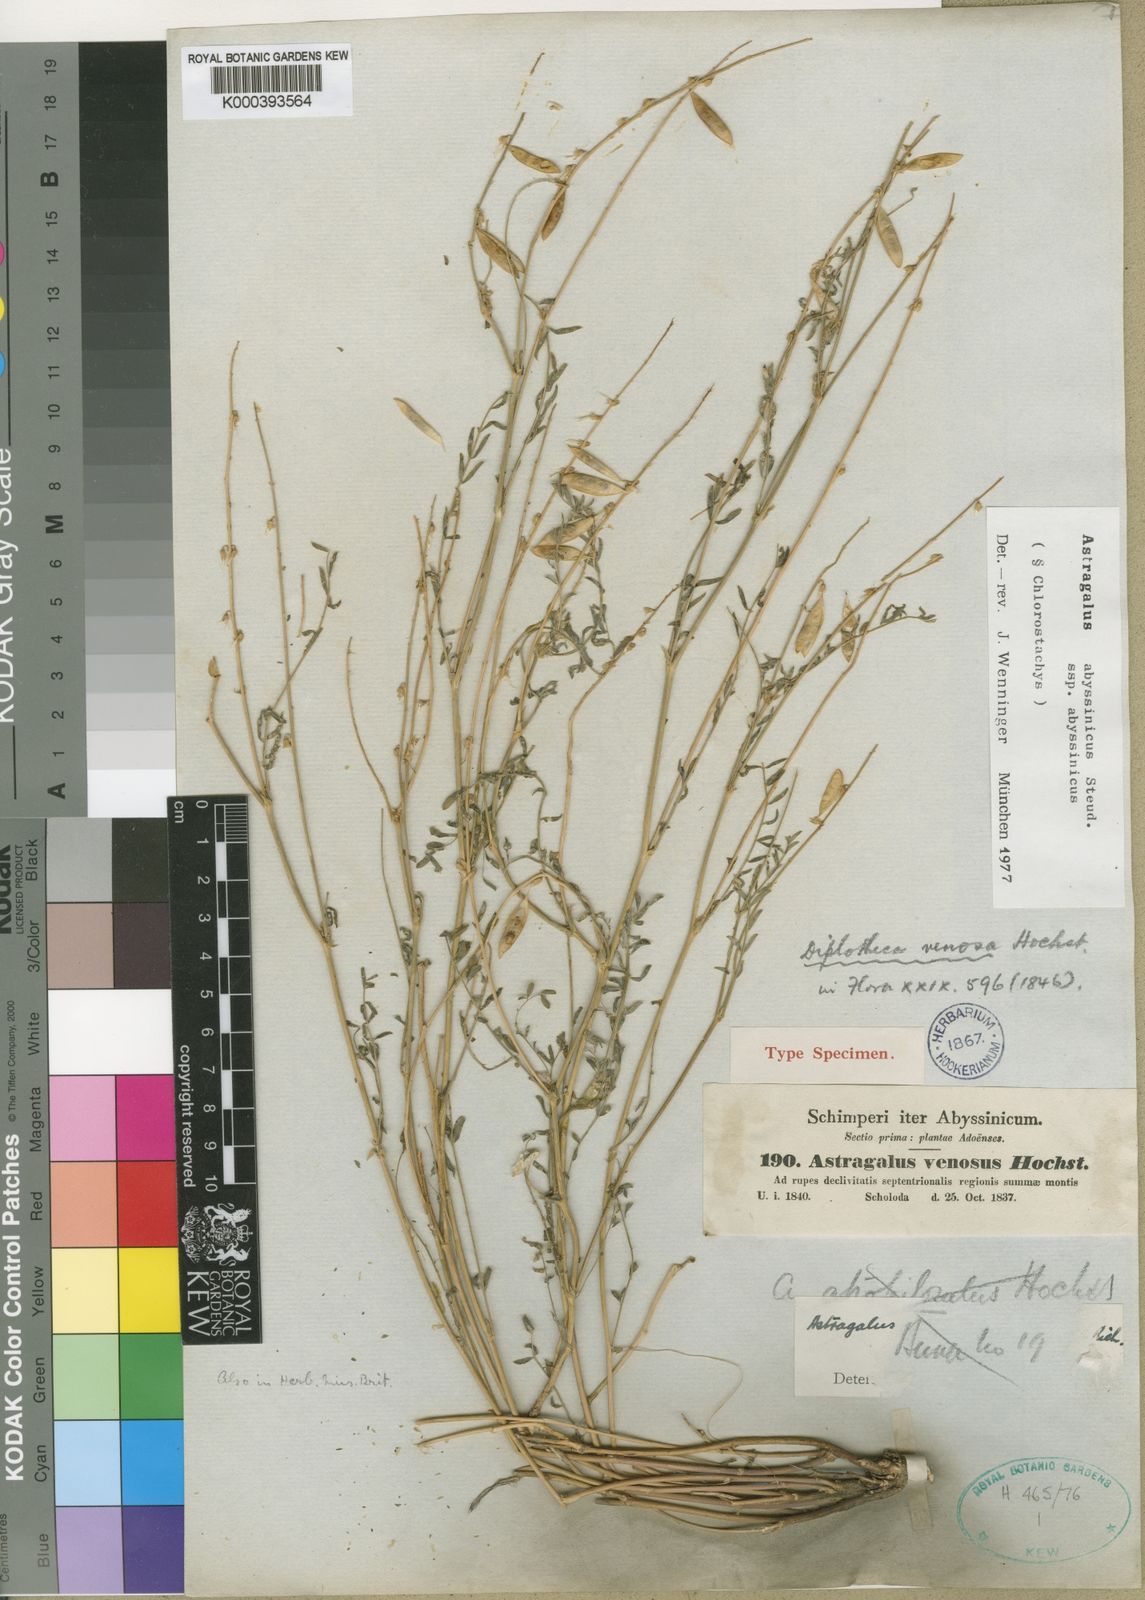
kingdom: Plantae
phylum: Tracheophyta
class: Magnoliopsida
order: Fabales
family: Fabaceae
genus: Astragalus
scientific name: Astragalus atropilosulus
